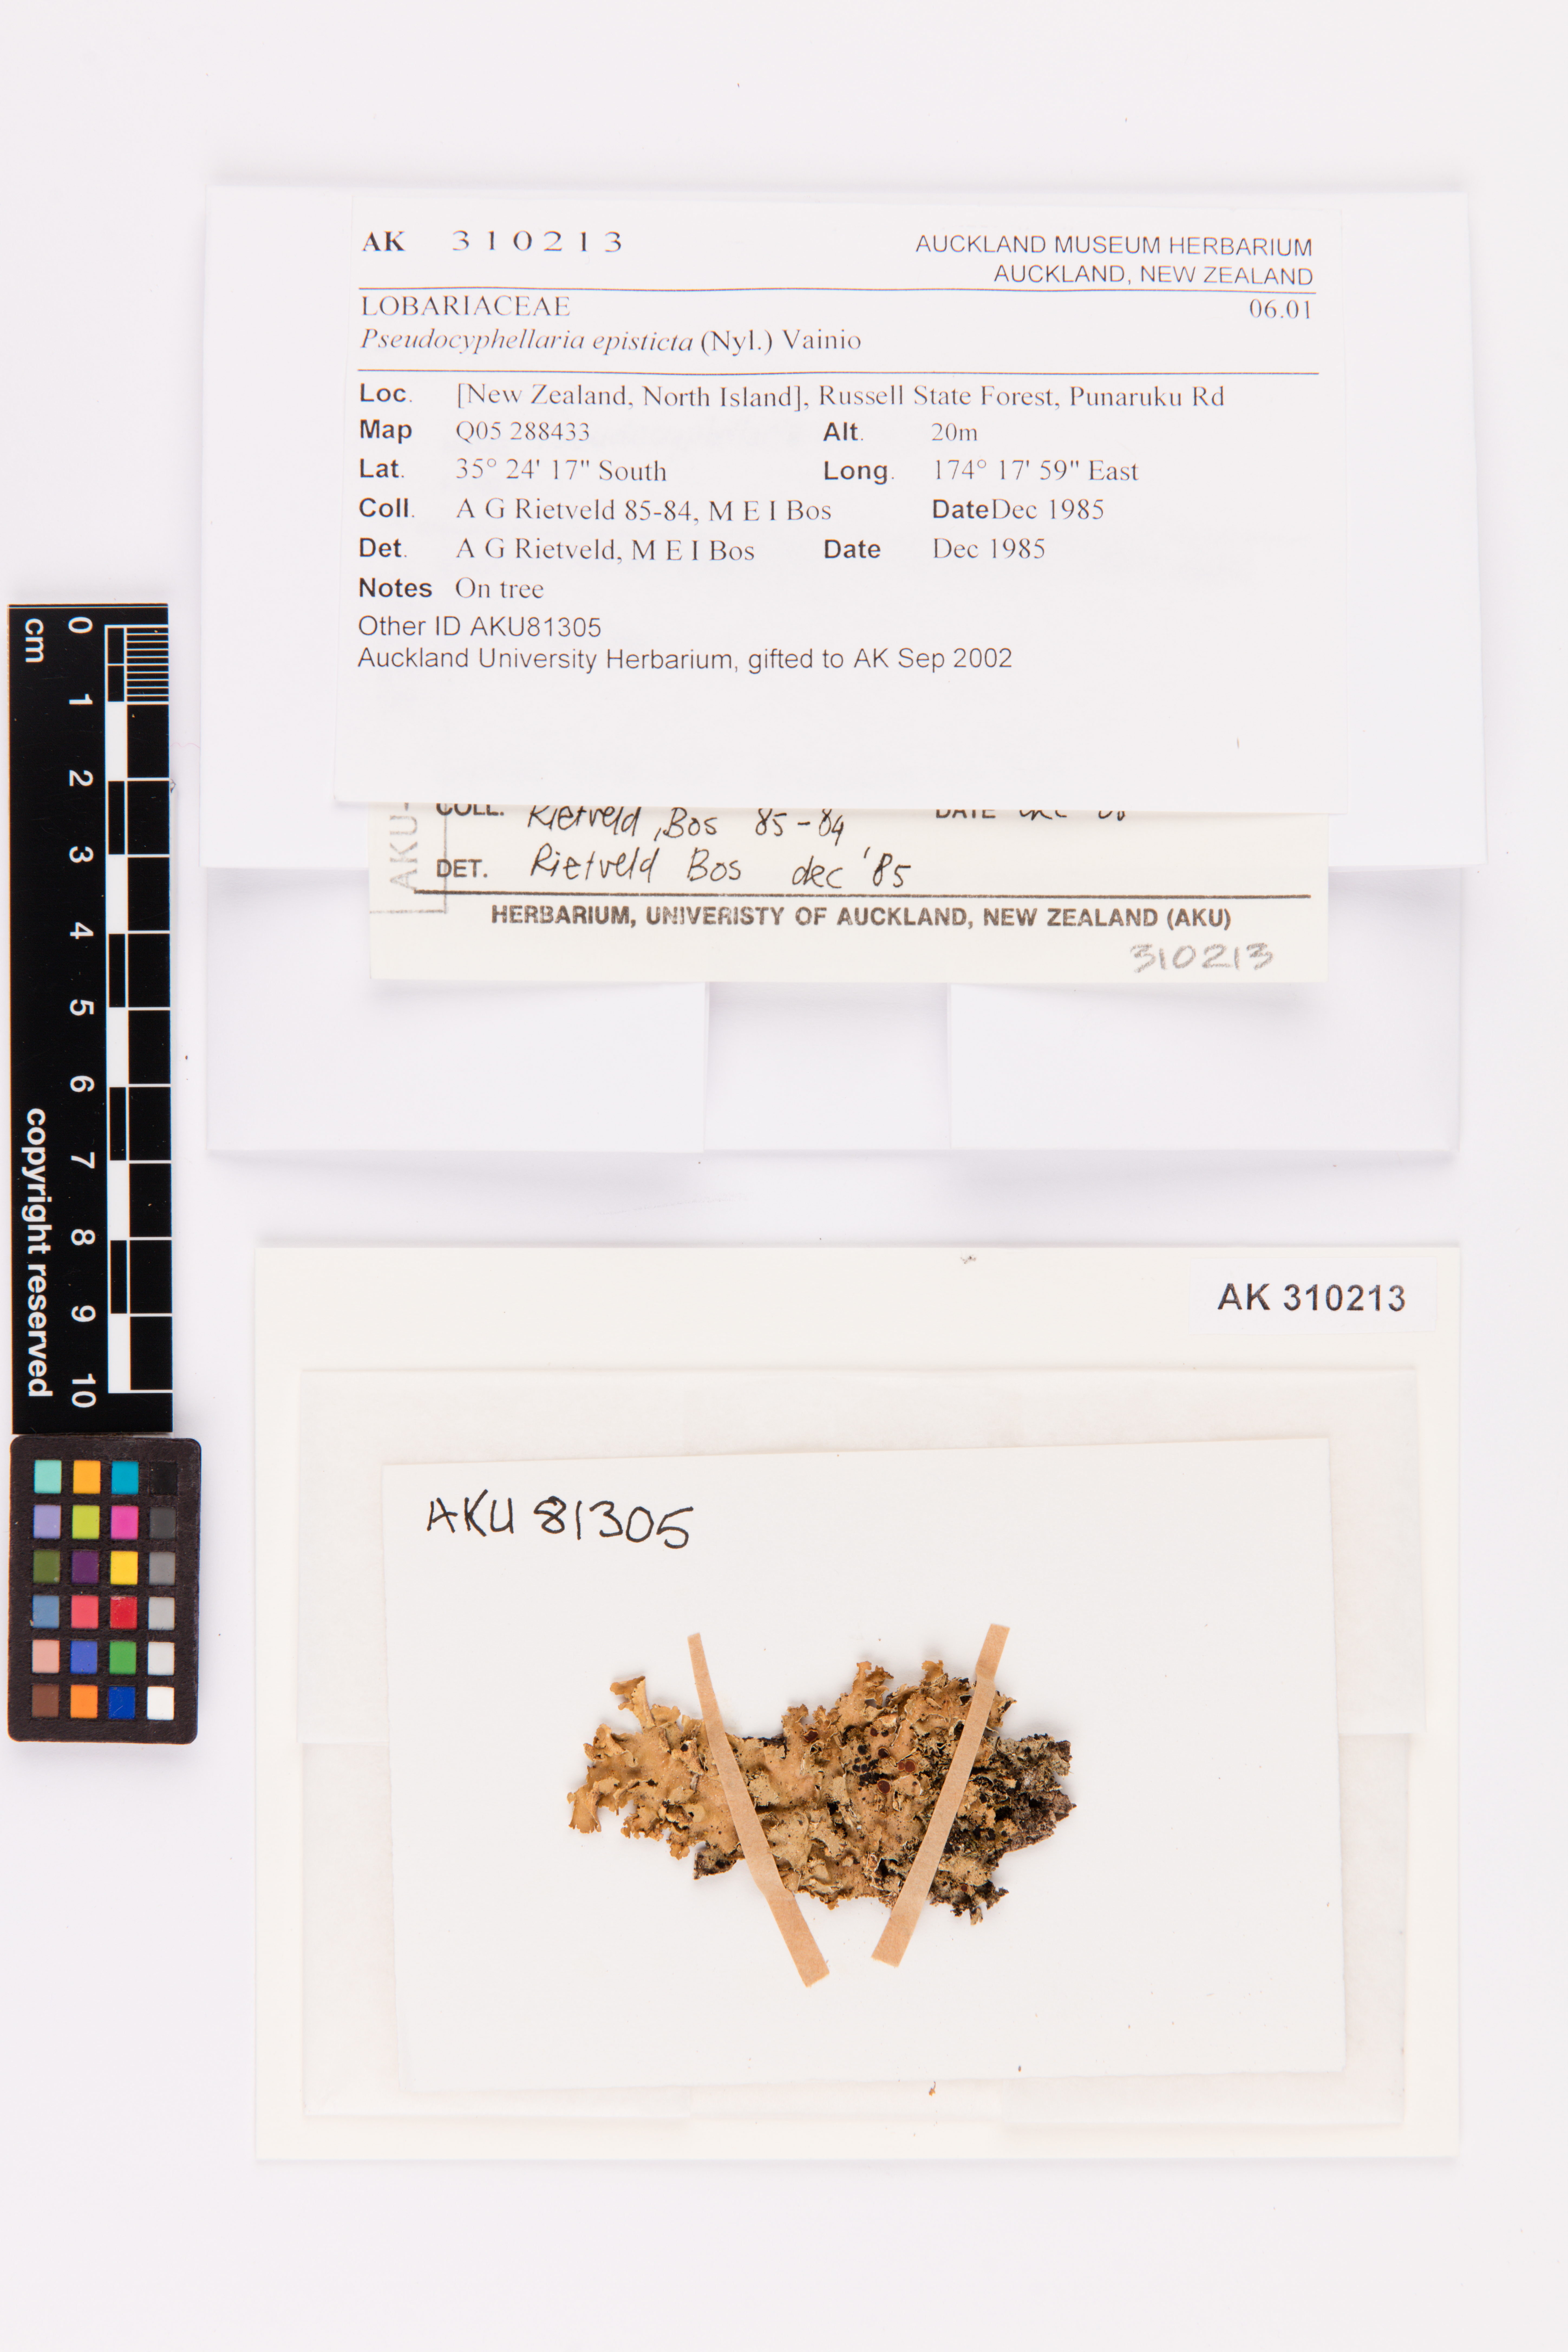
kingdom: Fungi
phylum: Ascomycota
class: Lecanoromycetes
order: Peltigerales
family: Lobariaceae
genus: Pseudocyphellaria
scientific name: Pseudocyphellaria episticta
